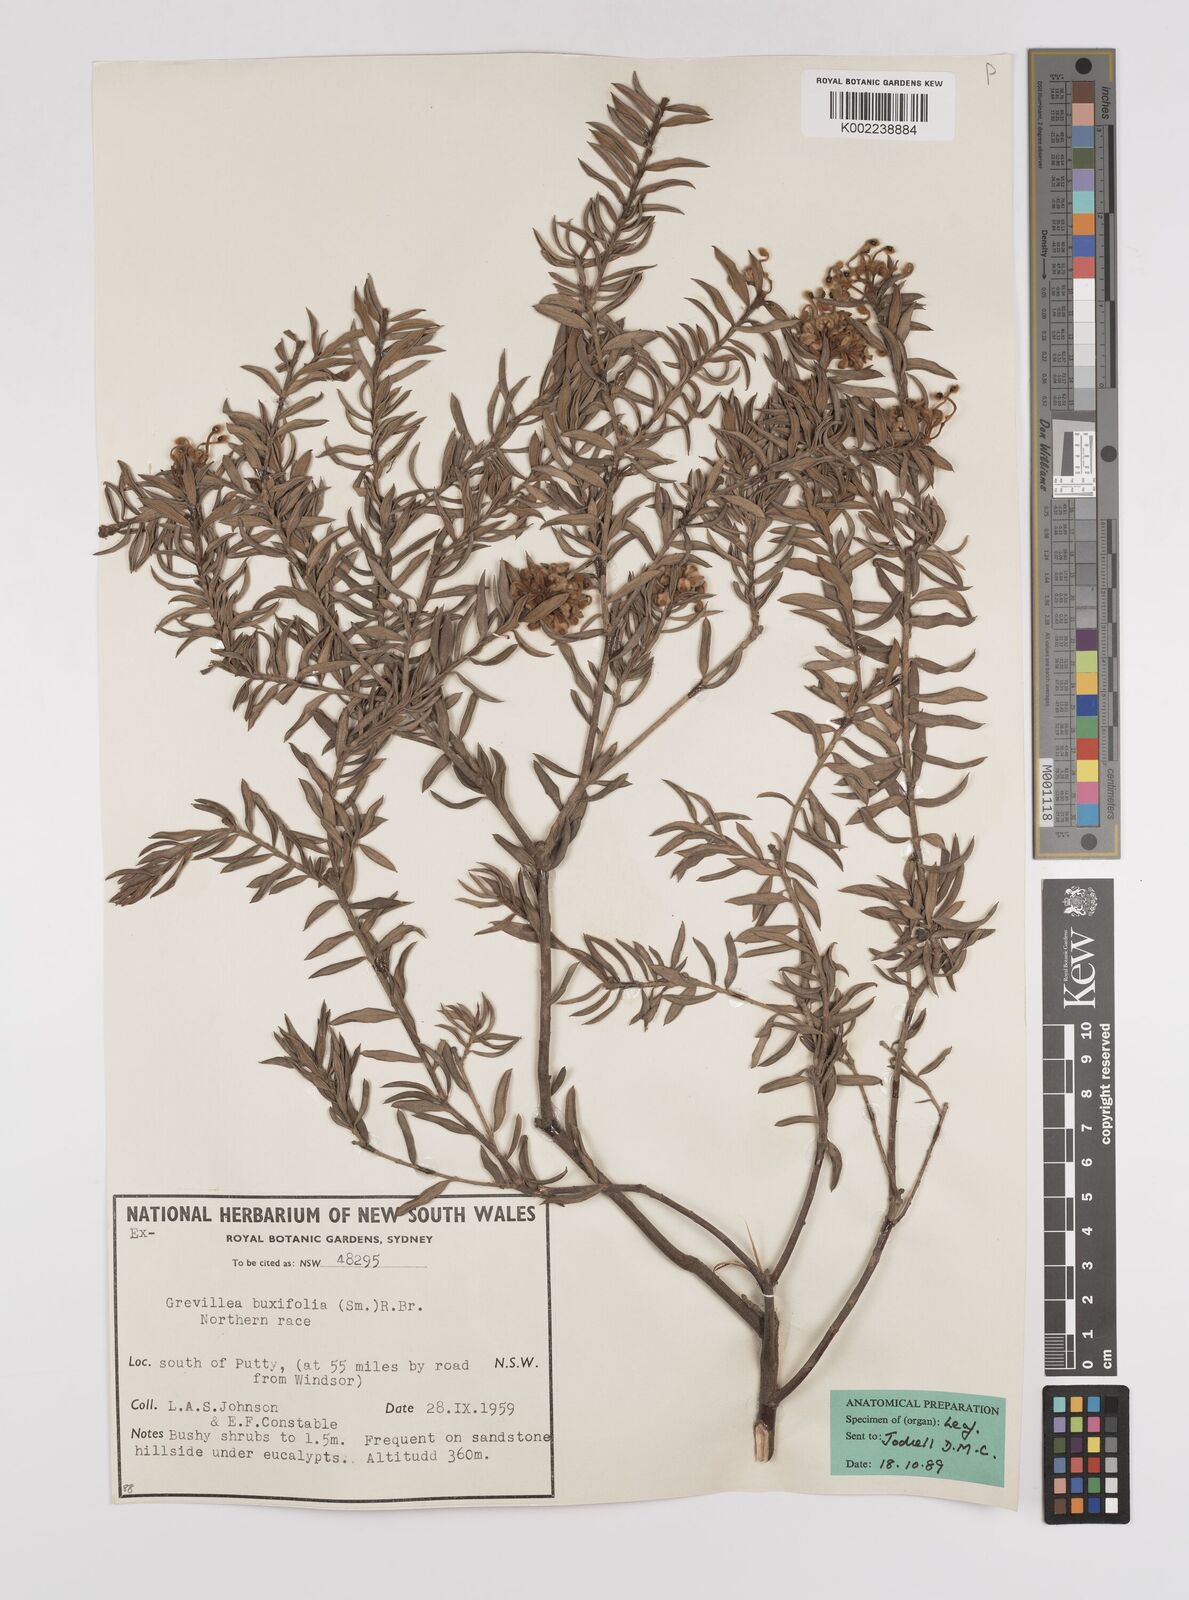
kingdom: Plantae
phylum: Tracheophyta
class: Magnoliopsida
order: Proteales
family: Proteaceae
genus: Grevillea
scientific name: Grevillea buxifolia
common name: Grey spiderflower
